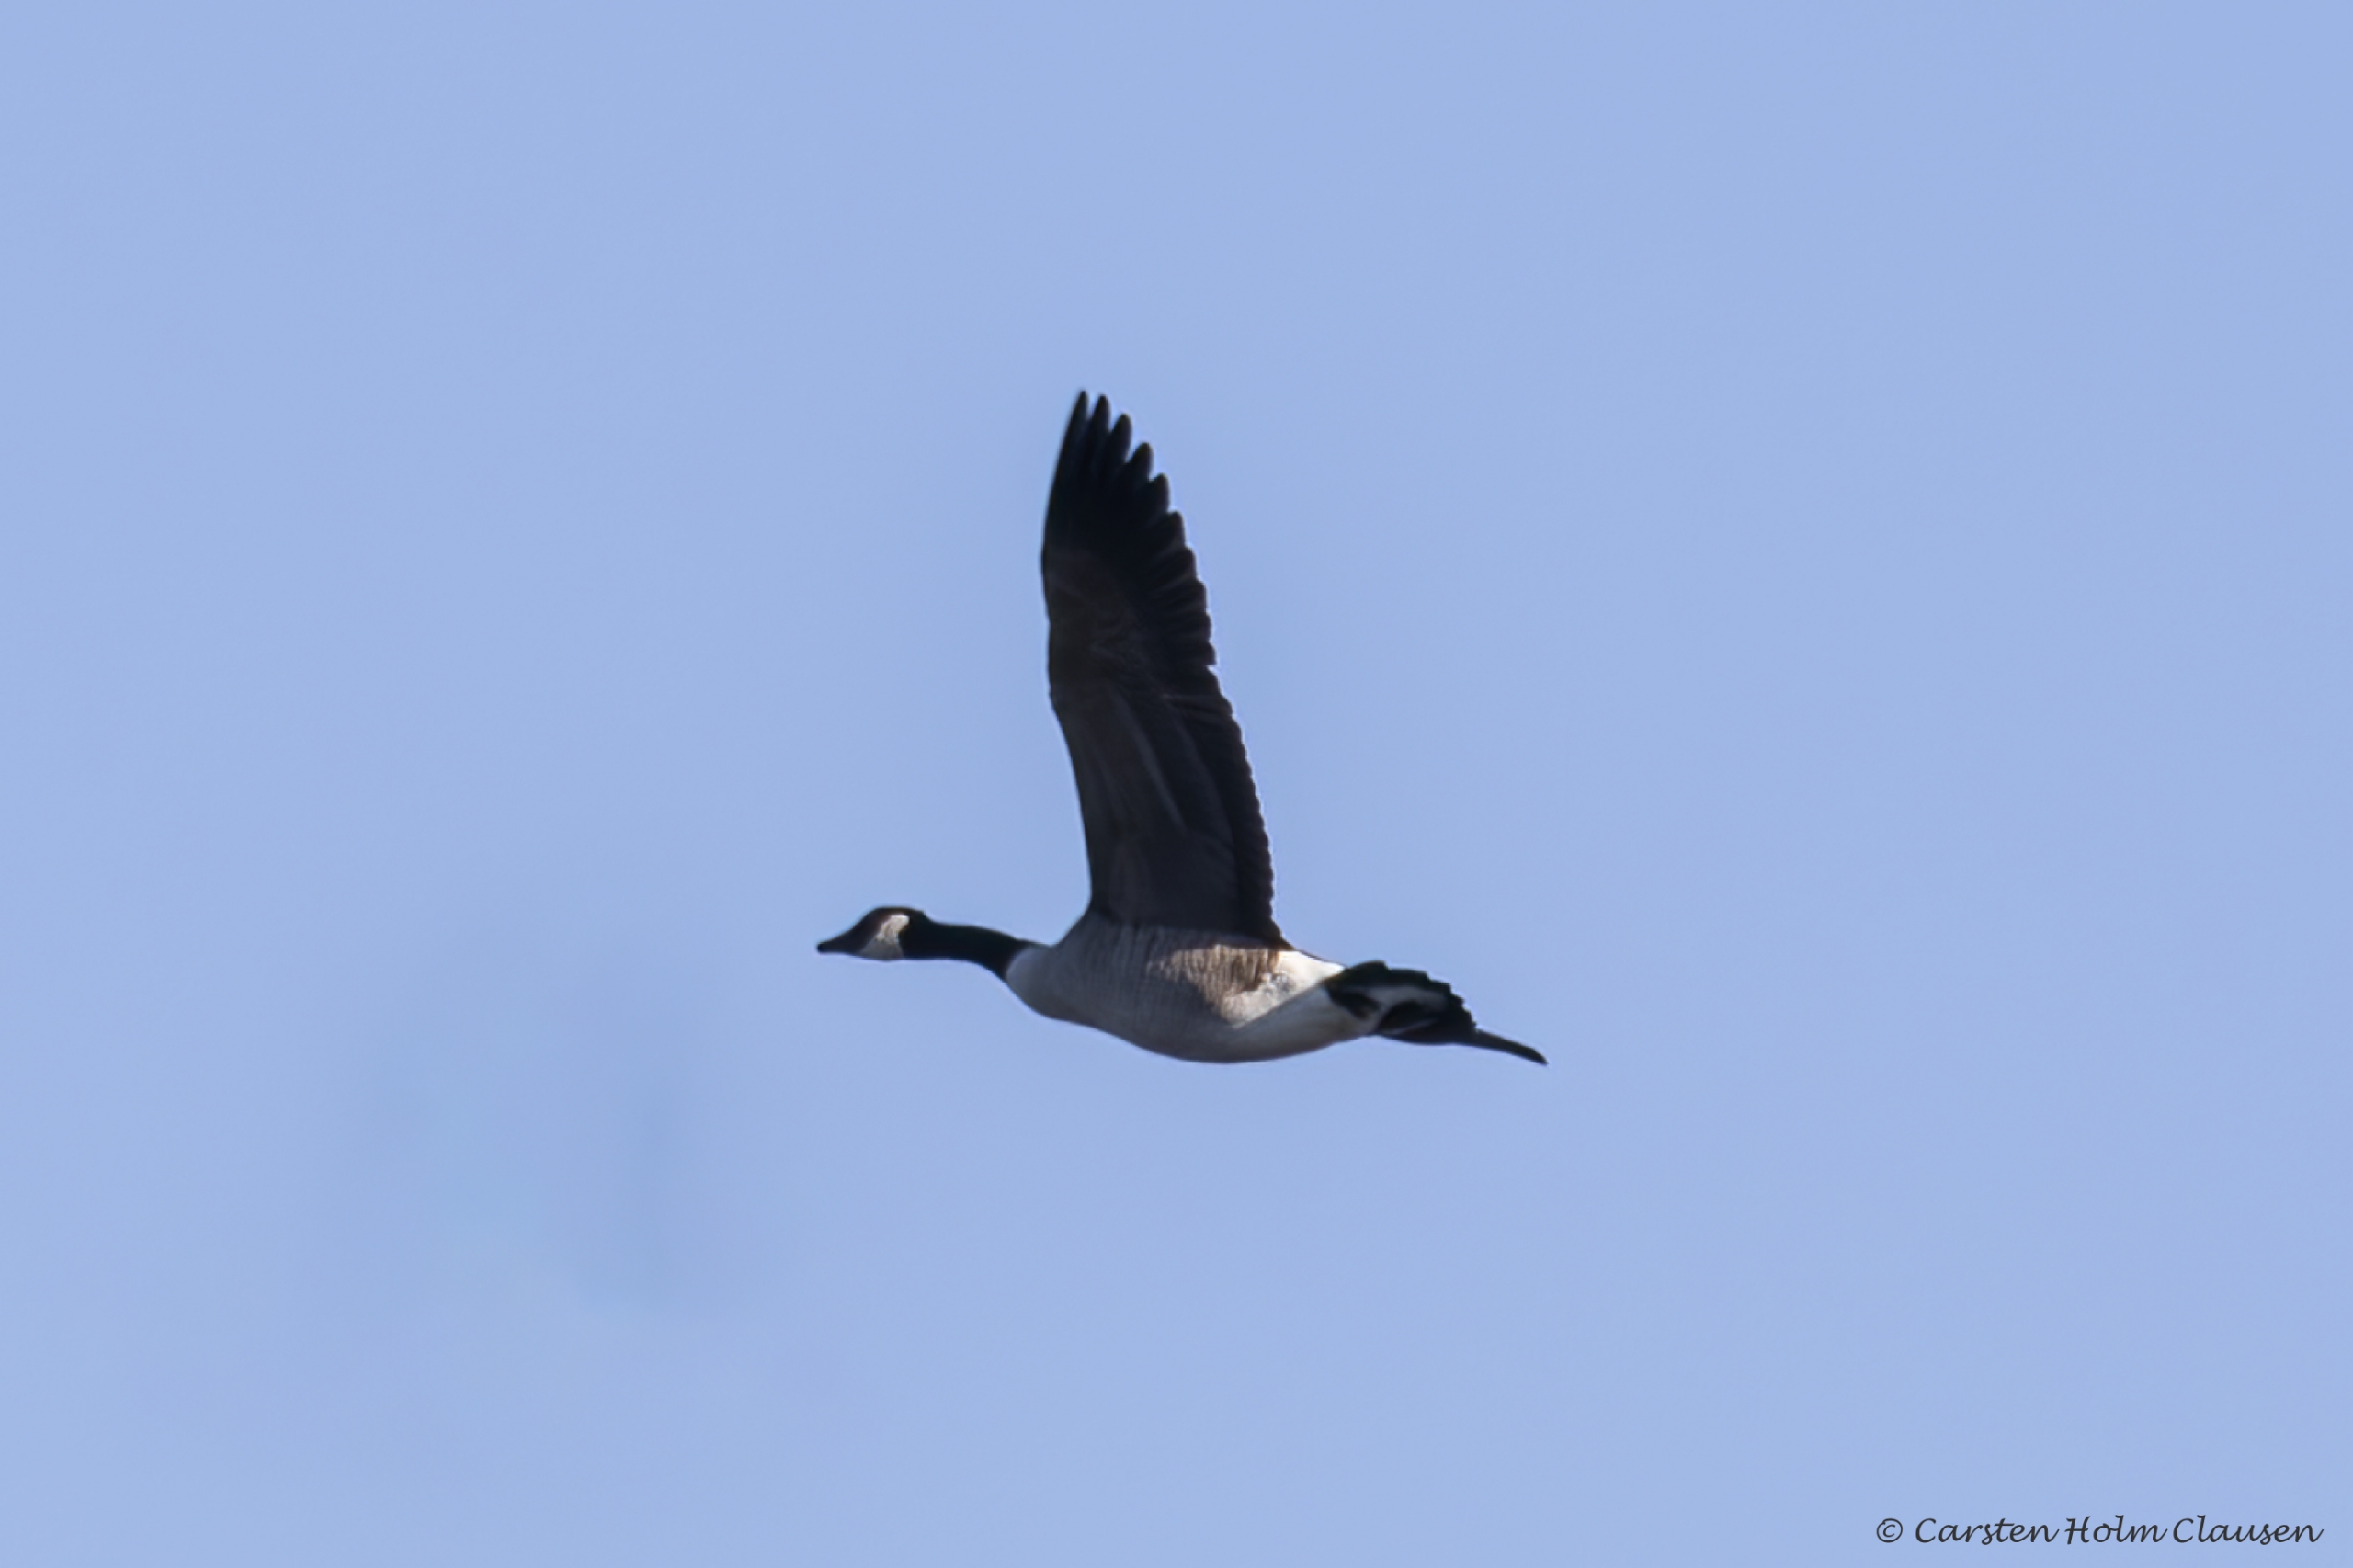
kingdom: Animalia
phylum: Chordata
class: Aves
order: Anseriformes
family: Anatidae
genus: Branta
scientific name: Branta canadensis
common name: Canadagås
